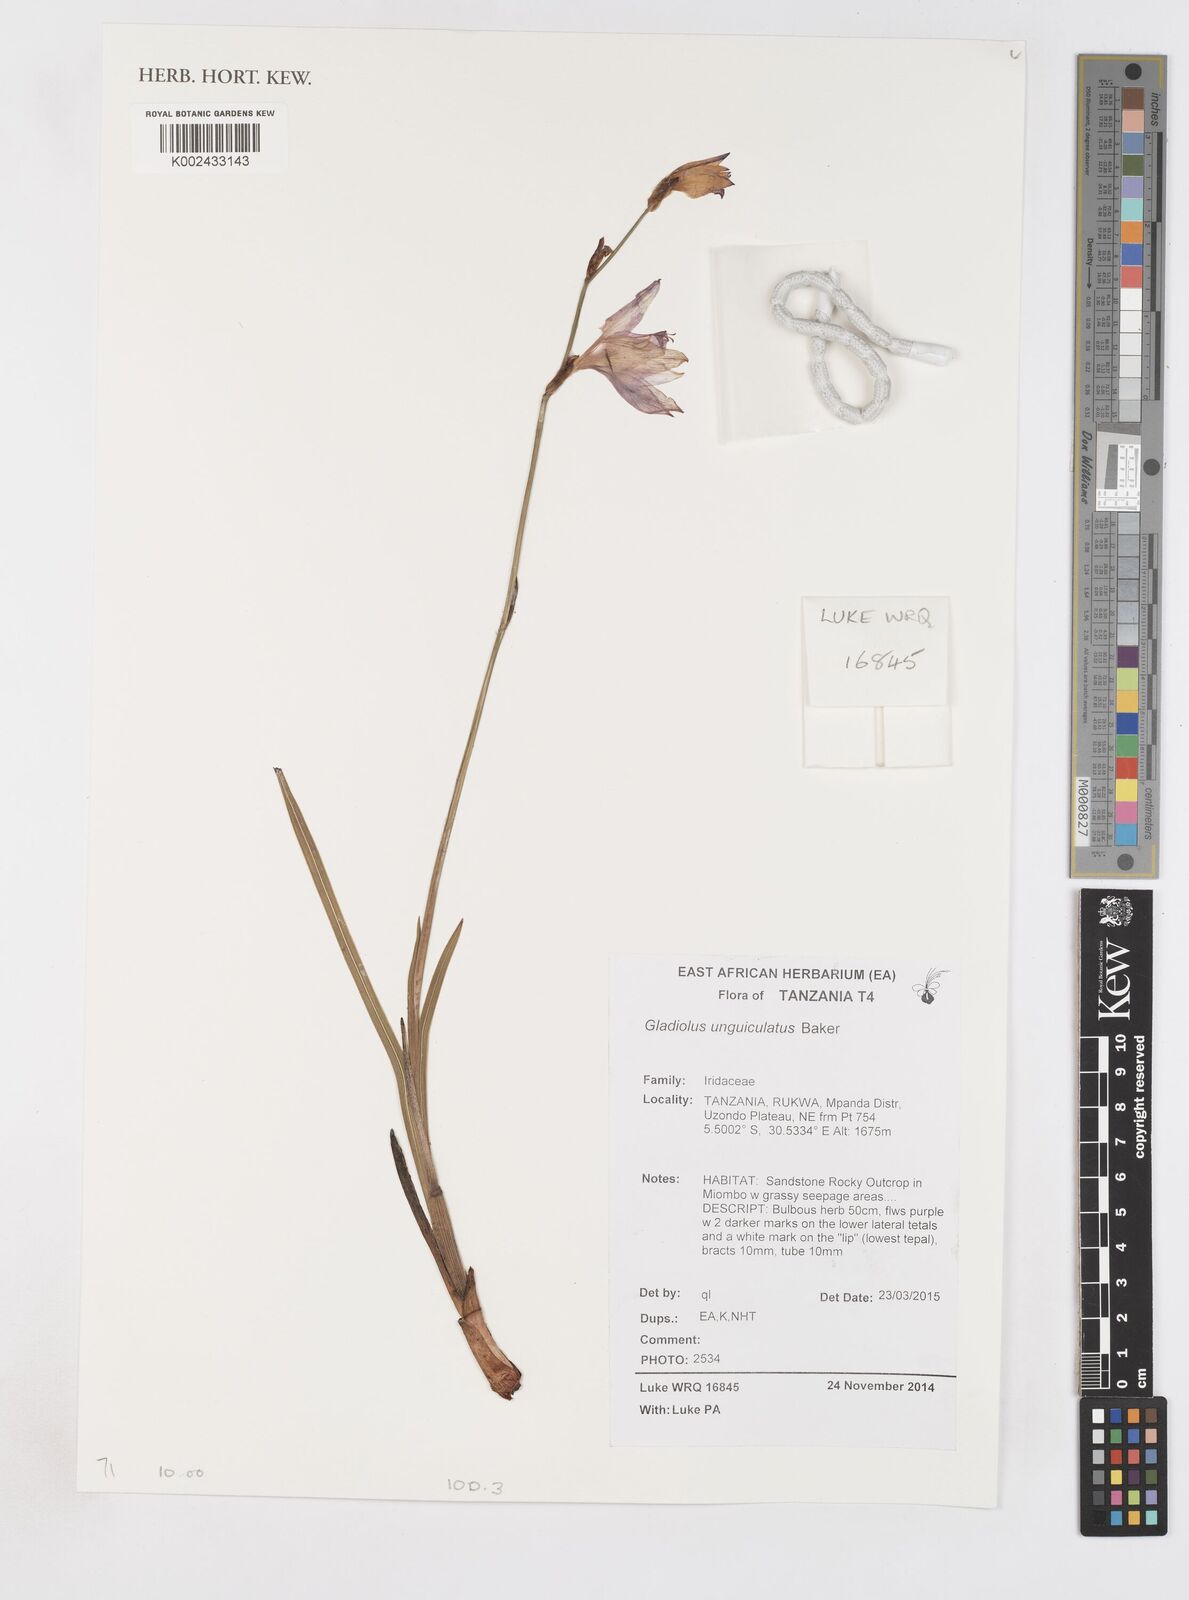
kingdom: Plantae
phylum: Tracheophyta
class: Liliopsida
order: Asparagales
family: Iridaceae
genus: Gladiolus
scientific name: Gladiolus unguiculatus
